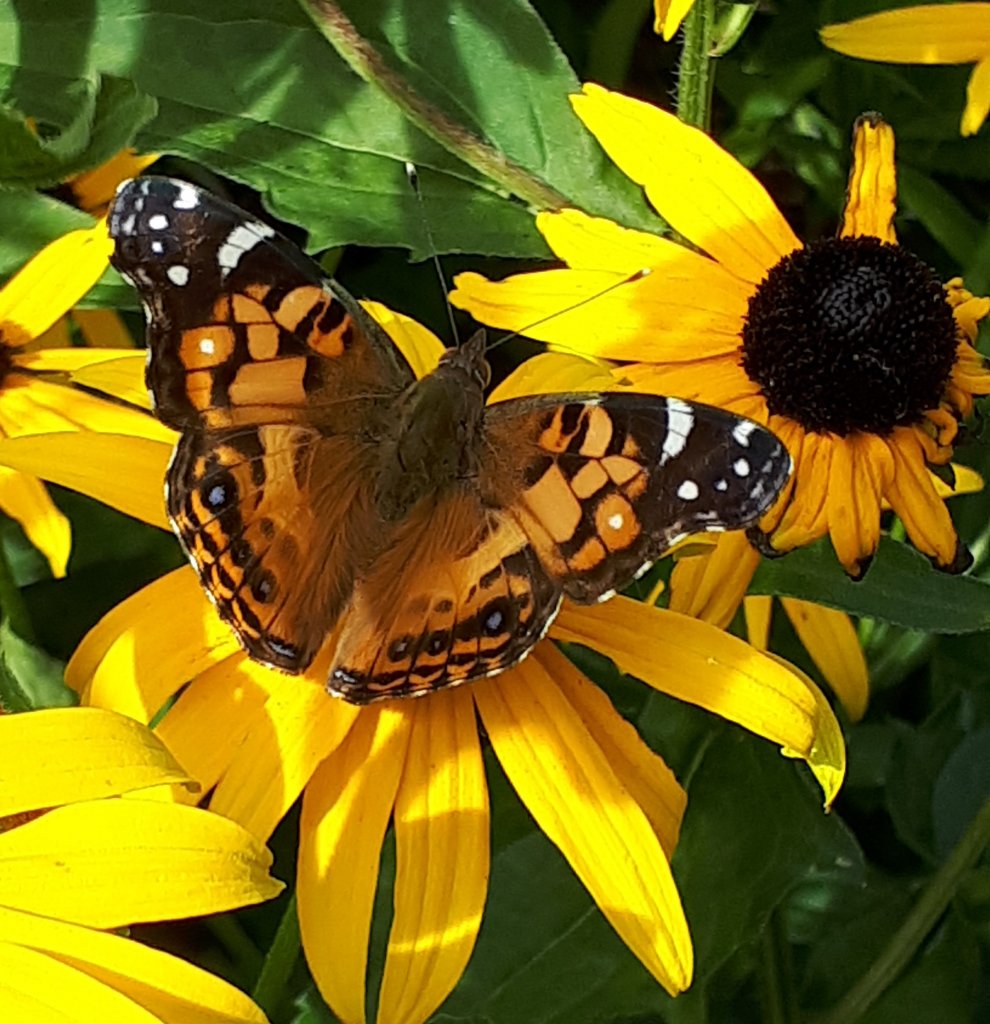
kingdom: Animalia
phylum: Arthropoda
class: Insecta
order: Lepidoptera
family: Nymphalidae
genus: Vanessa
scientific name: Vanessa virginiensis
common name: American Lady
